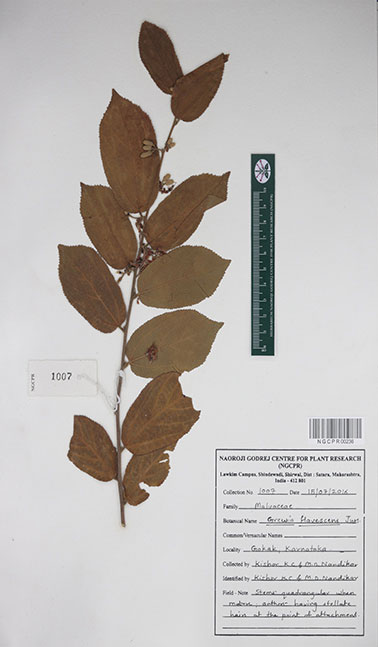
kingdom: Plantae
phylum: Tracheophyta
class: Magnoliopsida
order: Malvales
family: Malvaceae
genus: Grewia
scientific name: Grewia flavescens
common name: Sandpaper raisin
